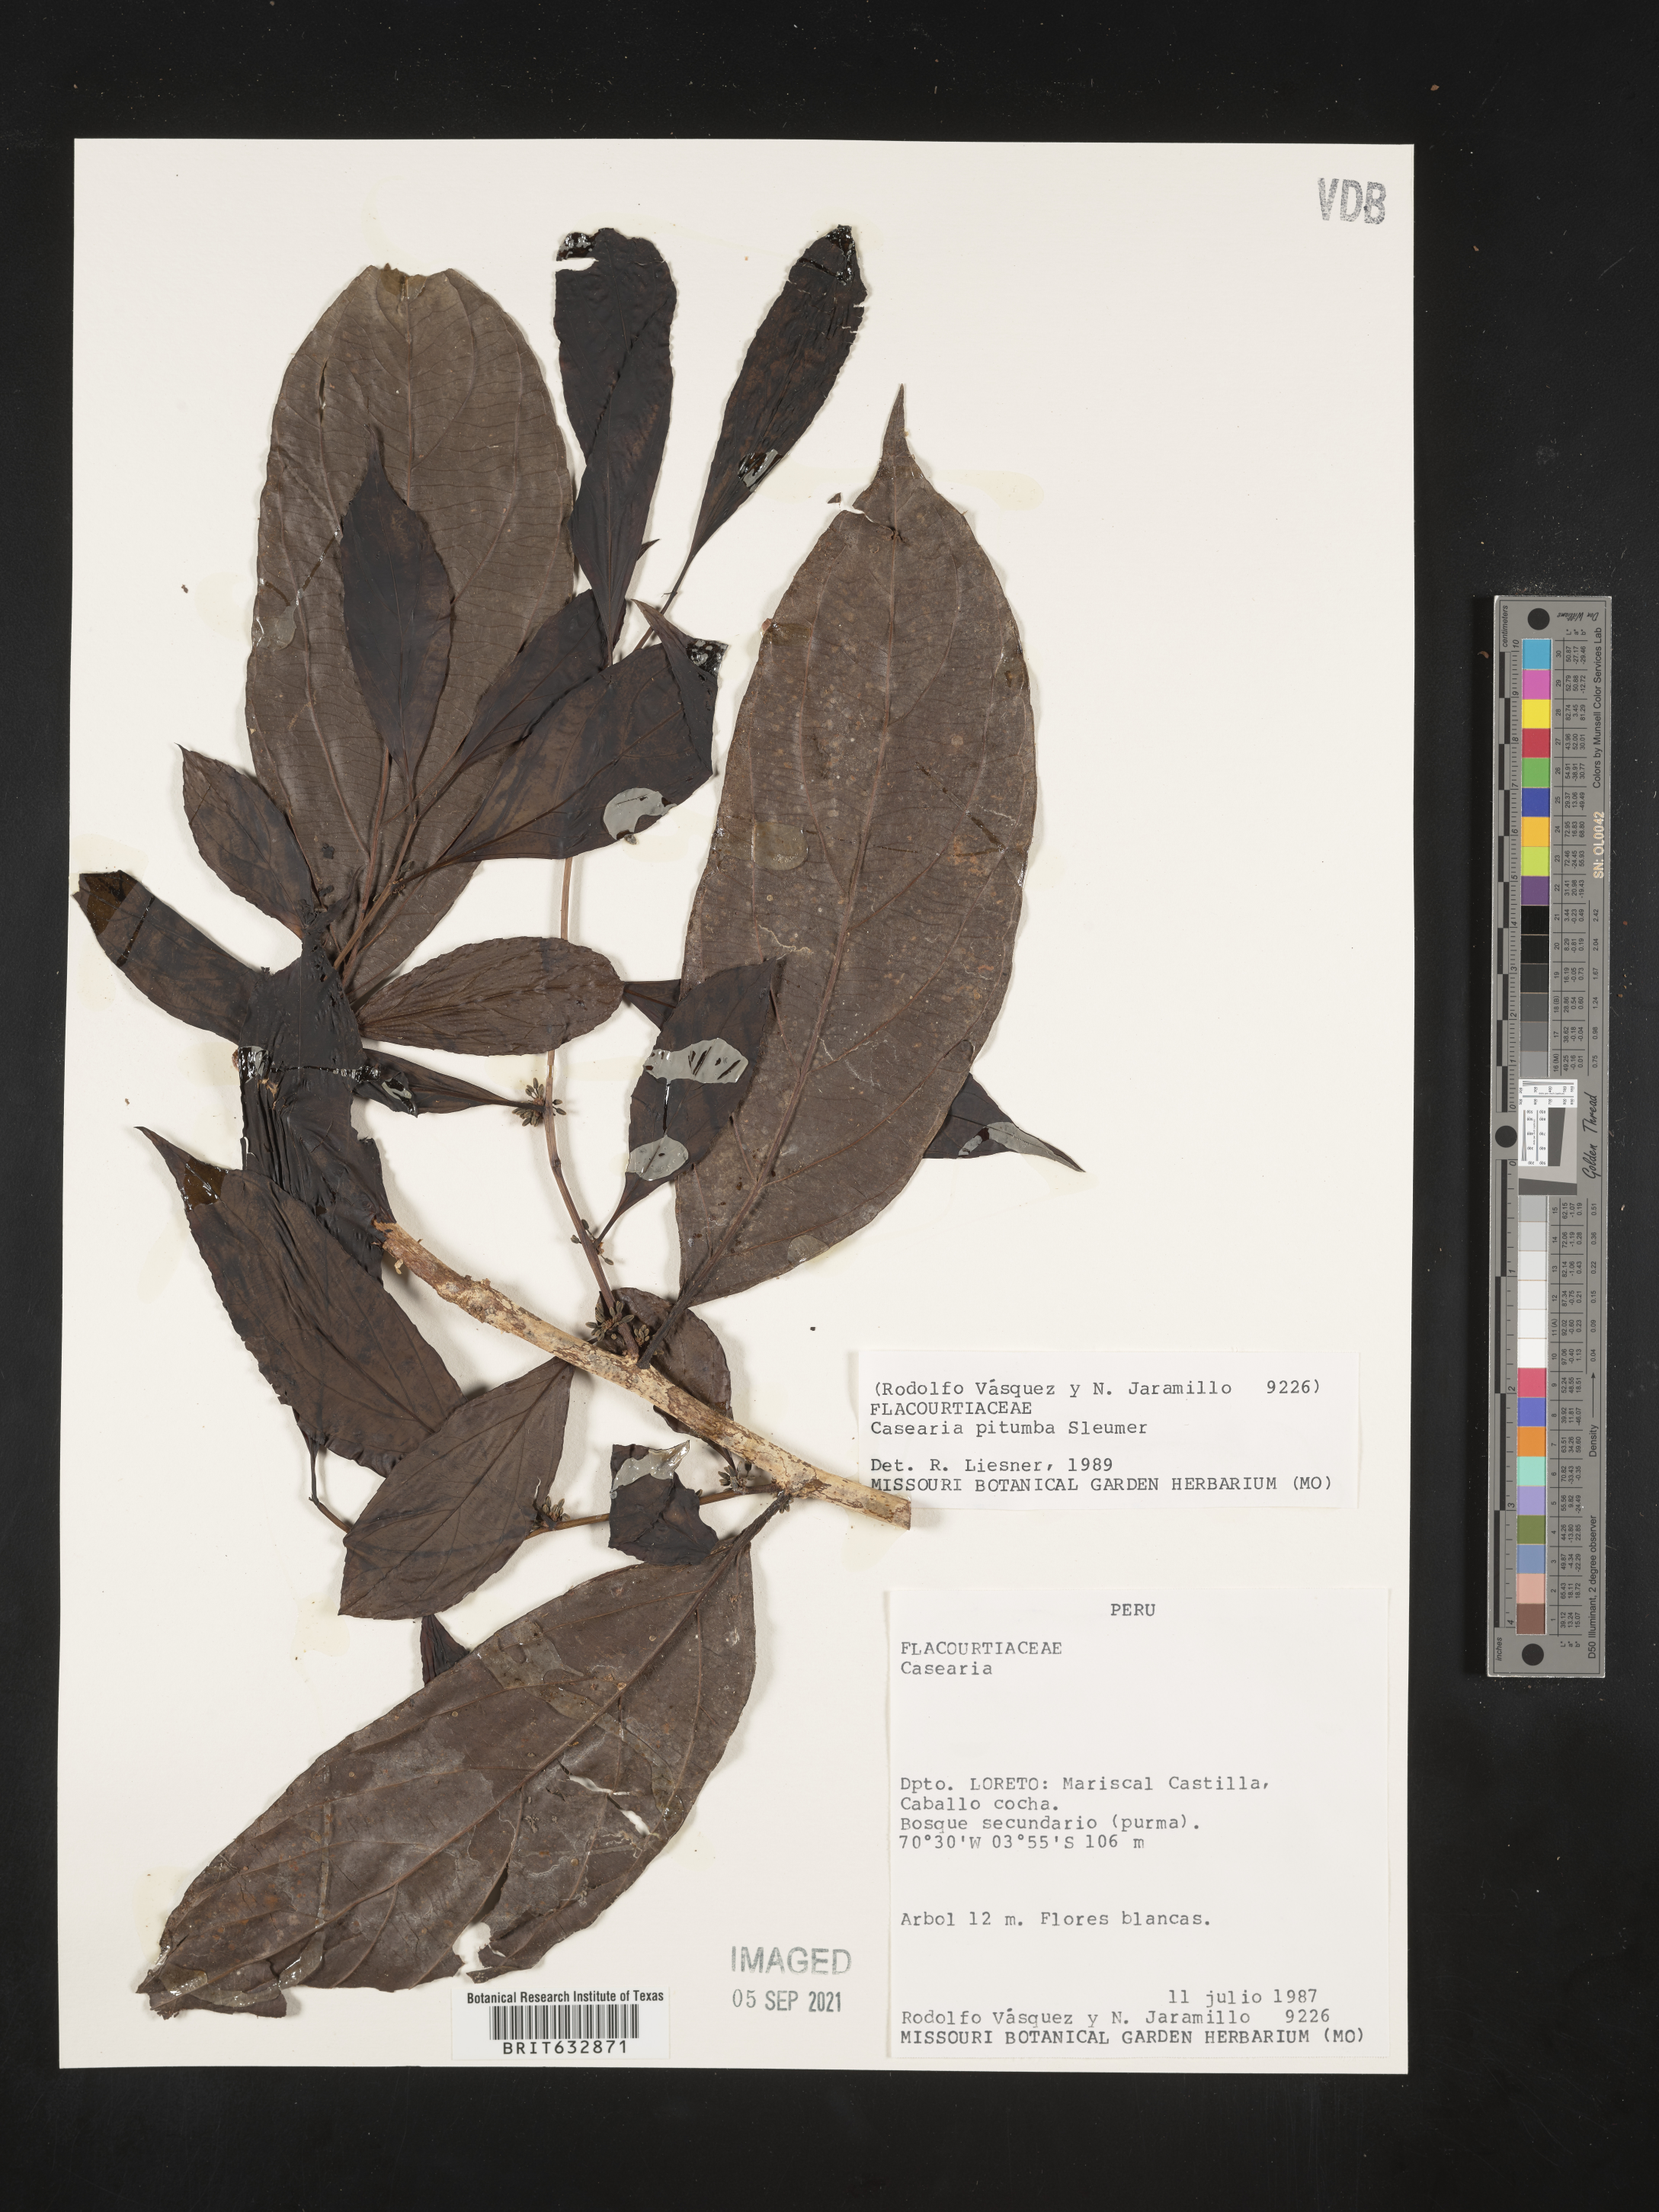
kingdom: Plantae
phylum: Tracheophyta
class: Magnoliopsida
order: Malpighiales
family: Salicaceae
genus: Casearia
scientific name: Casearia
